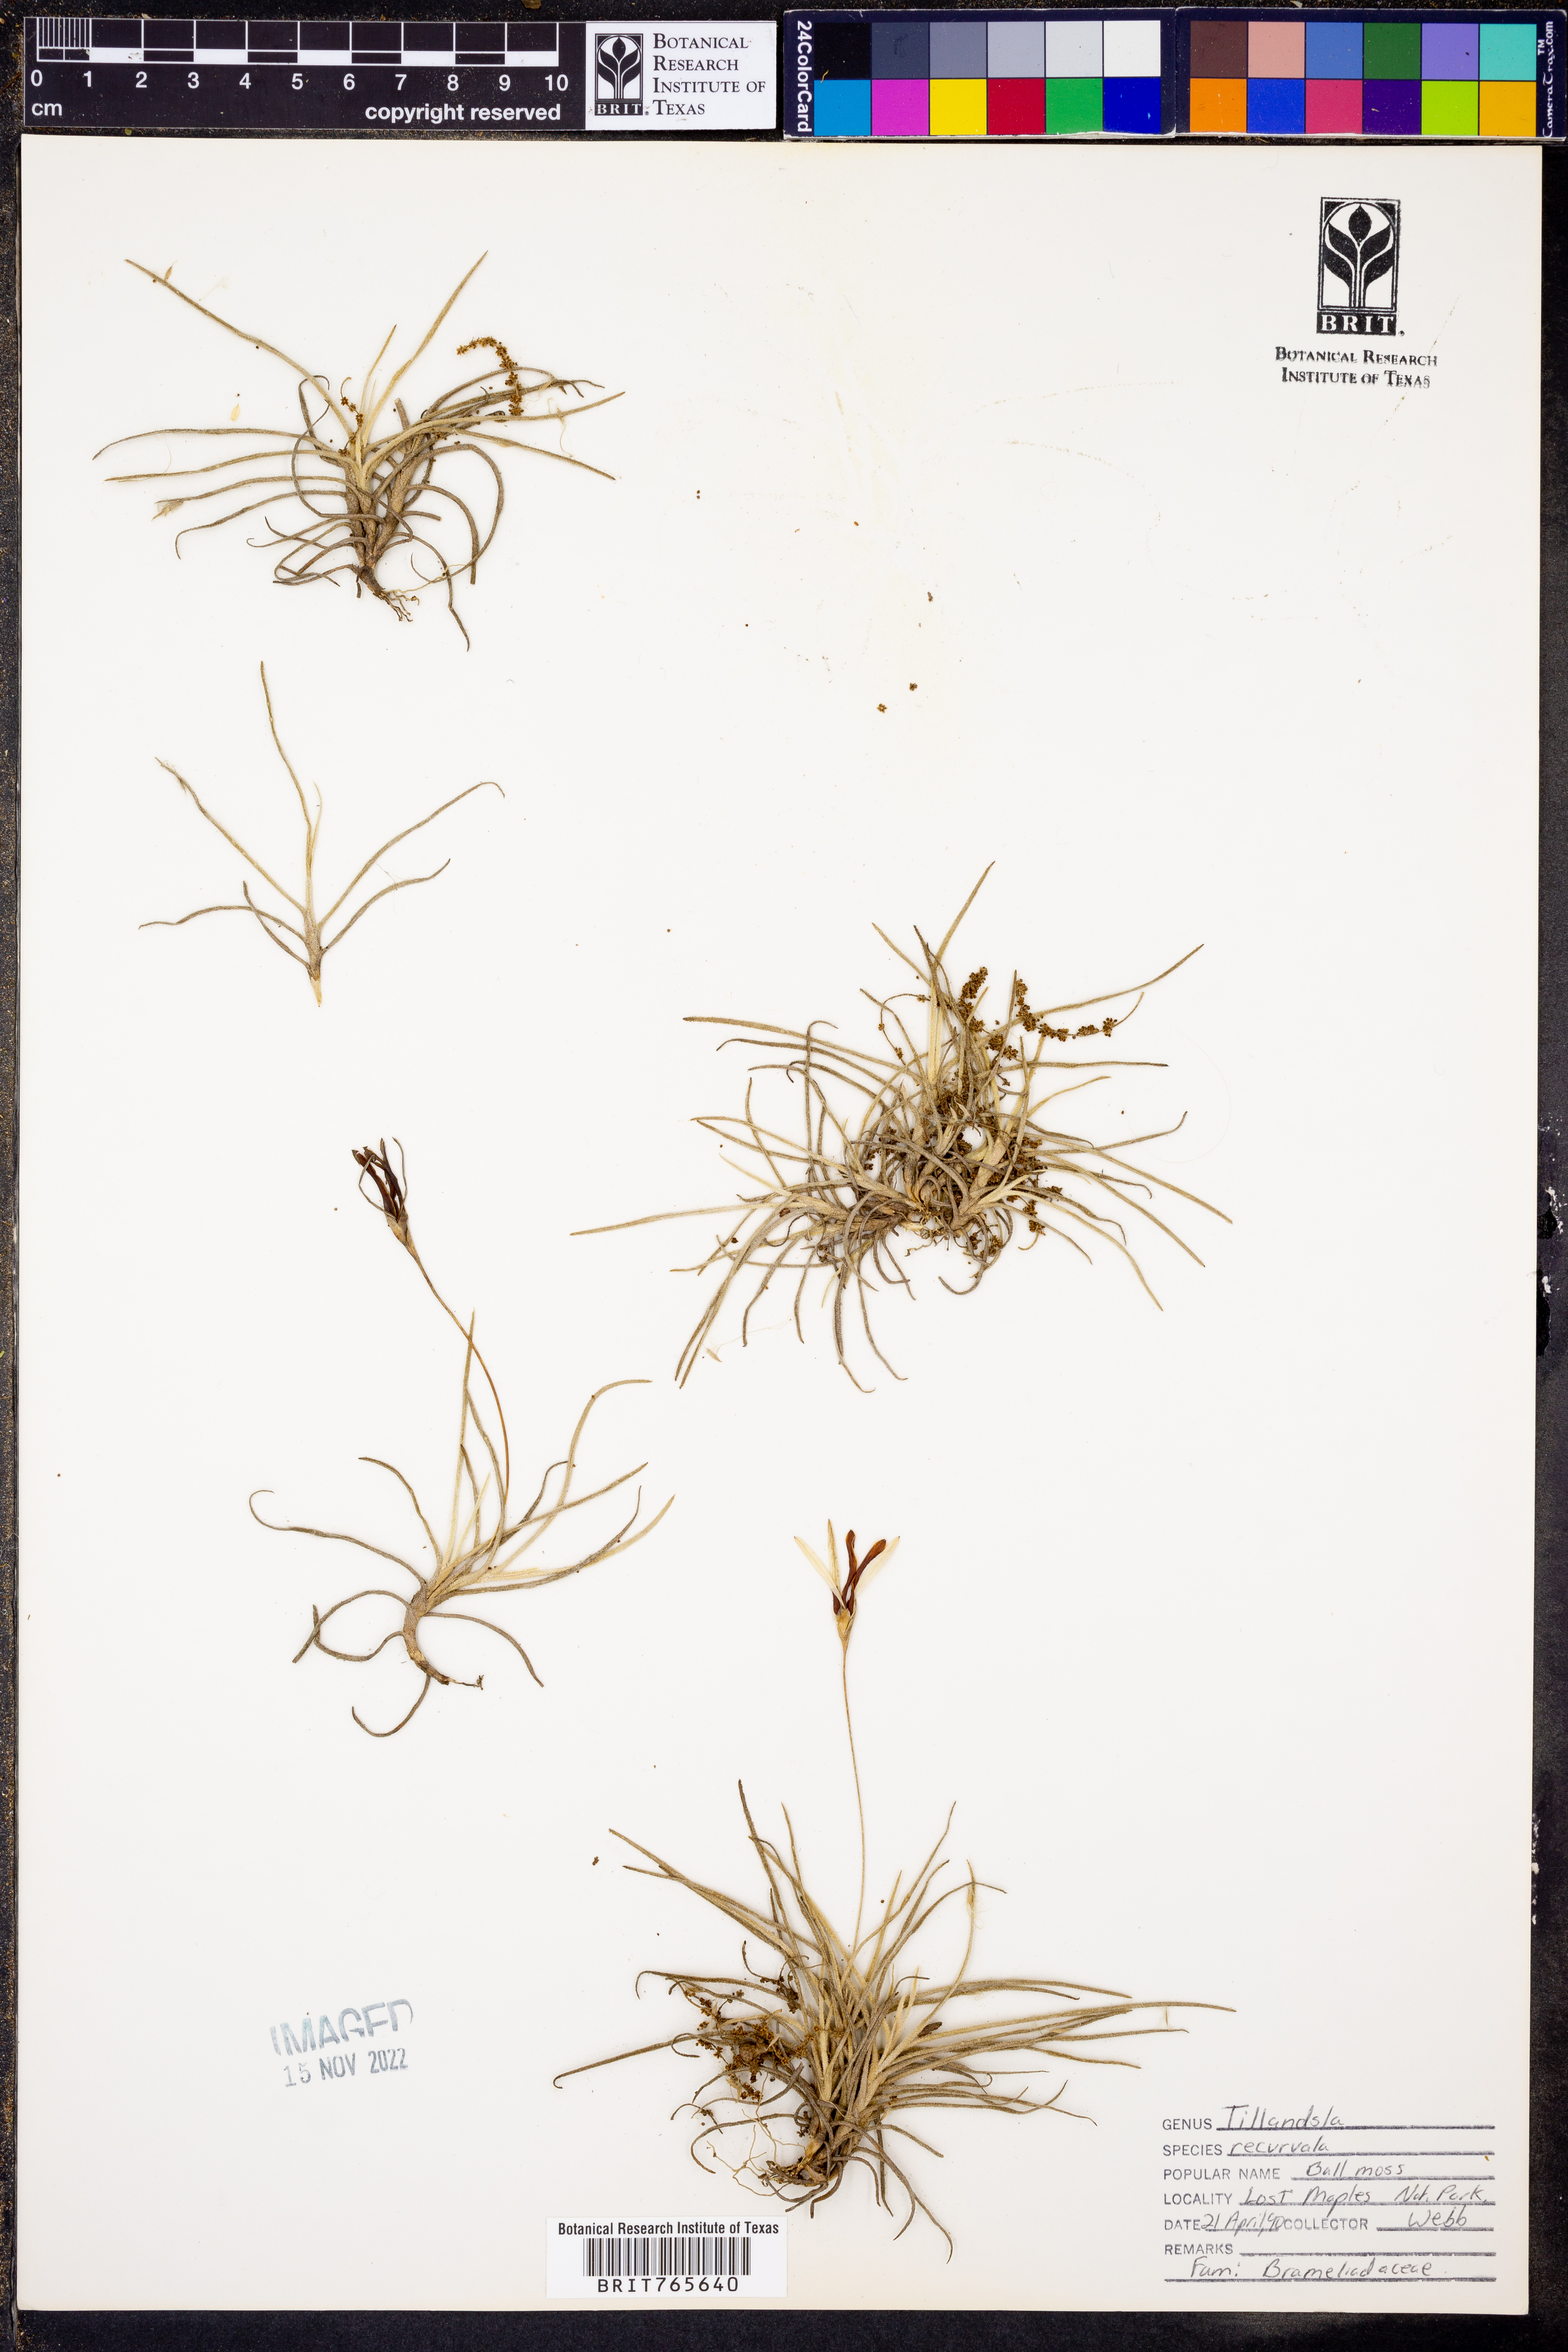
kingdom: Plantae
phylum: Tracheophyta
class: Liliopsida
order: Poales
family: Bromeliaceae
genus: Tillandsia
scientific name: Tillandsia recurvata
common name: Small ballmoss
